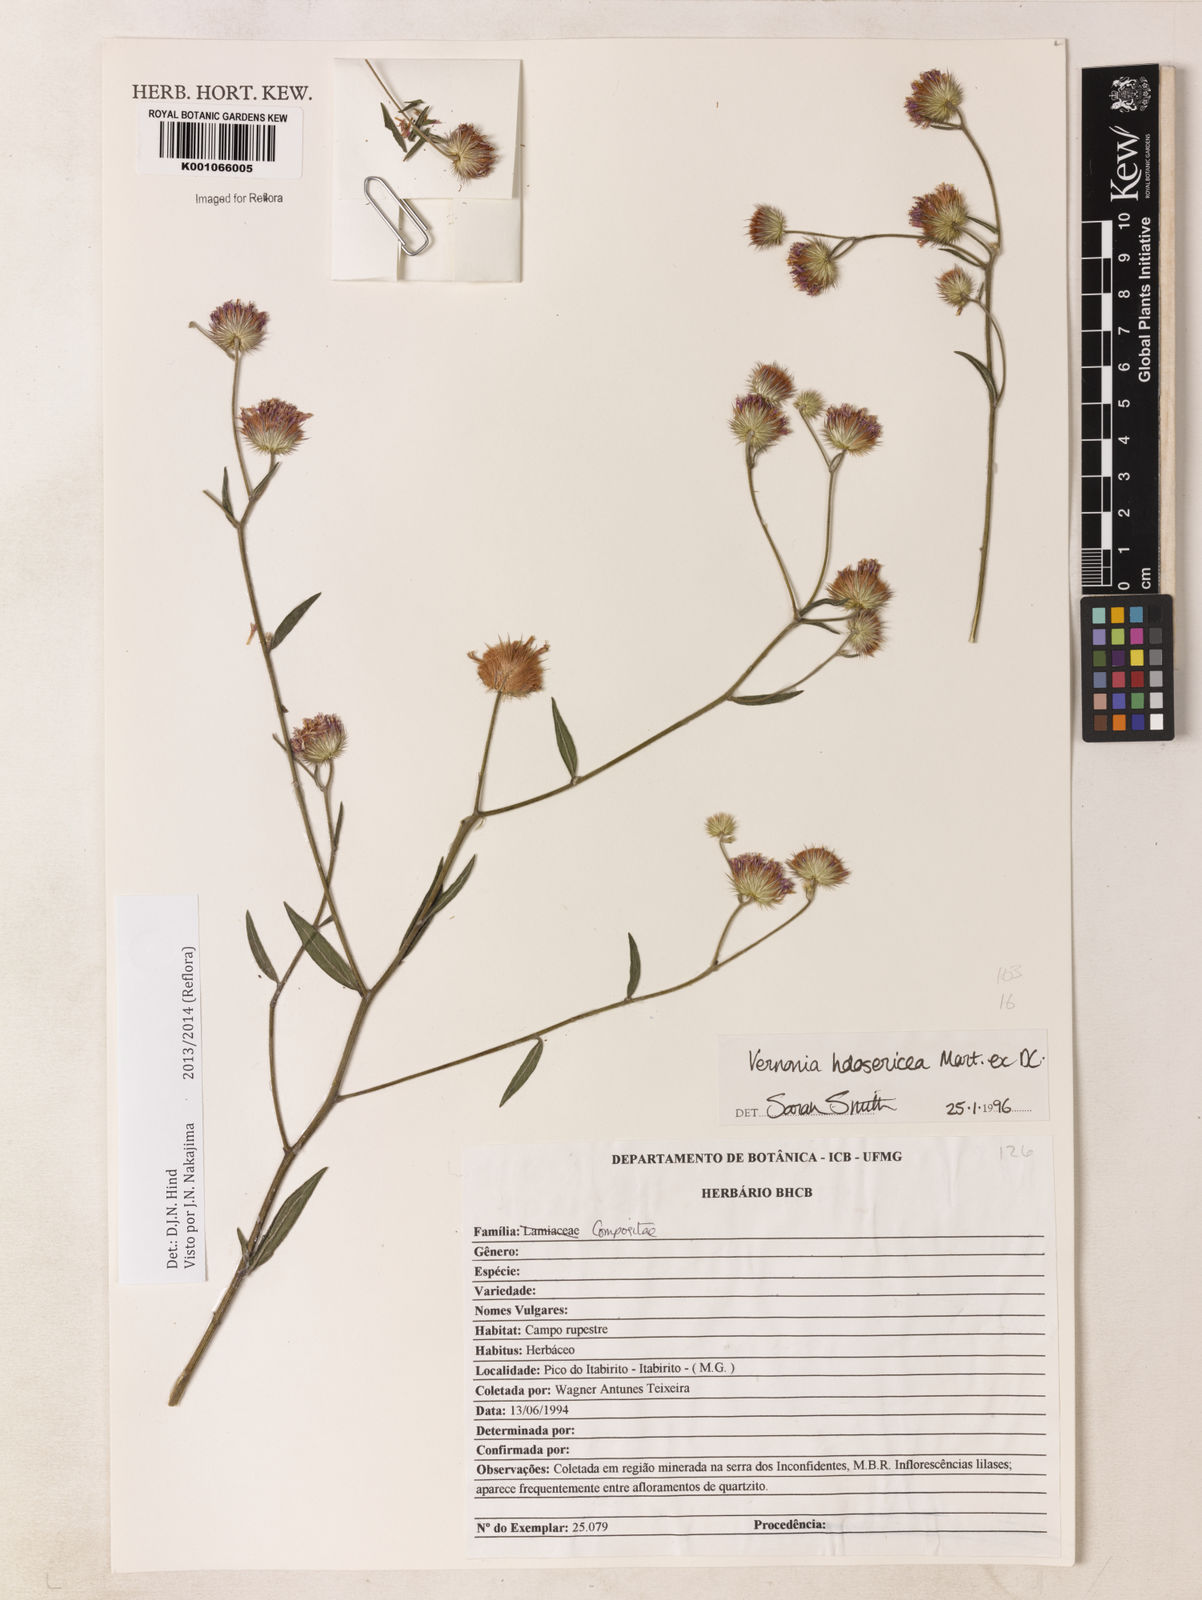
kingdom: Plantae
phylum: Tracheophyta
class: Magnoliopsida
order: Asterales
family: Asteraceae
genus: Echinocoryne
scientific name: Echinocoryne holosericea
